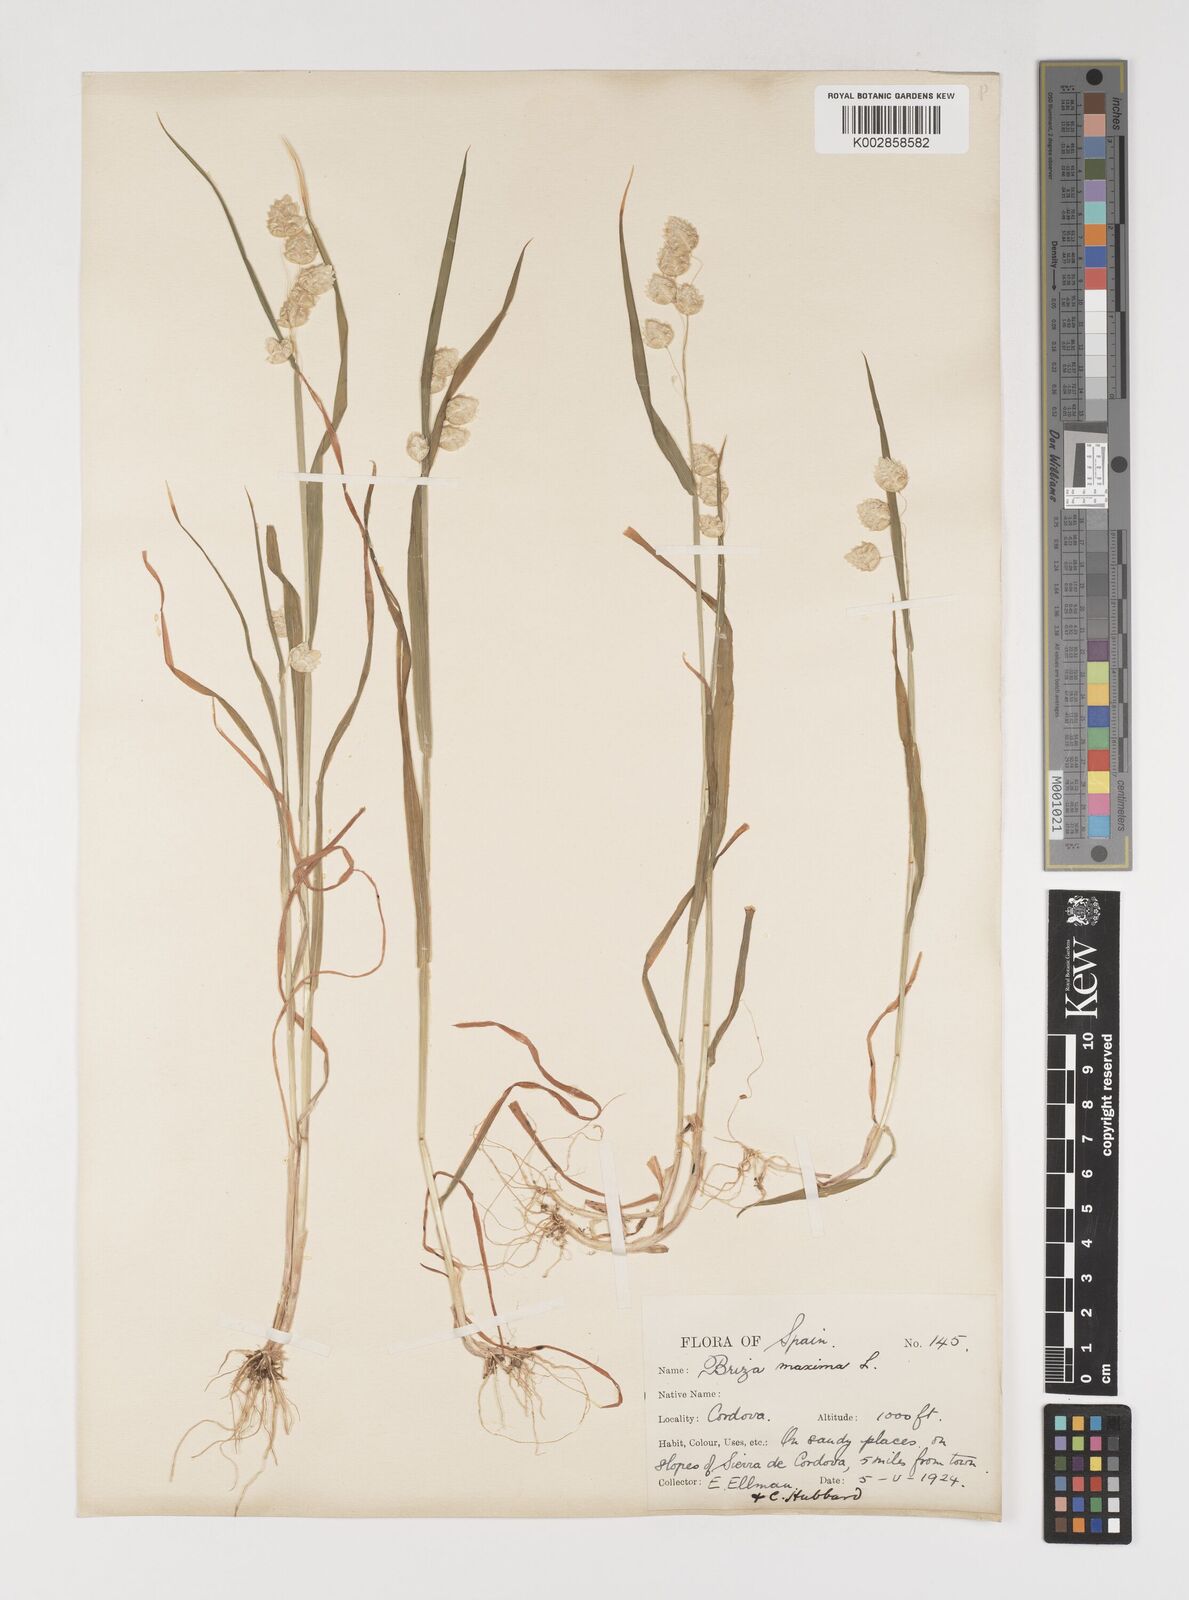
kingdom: Plantae
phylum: Tracheophyta
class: Liliopsida
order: Poales
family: Poaceae
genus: Briza
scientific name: Briza maxima
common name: Big quakinggrass
